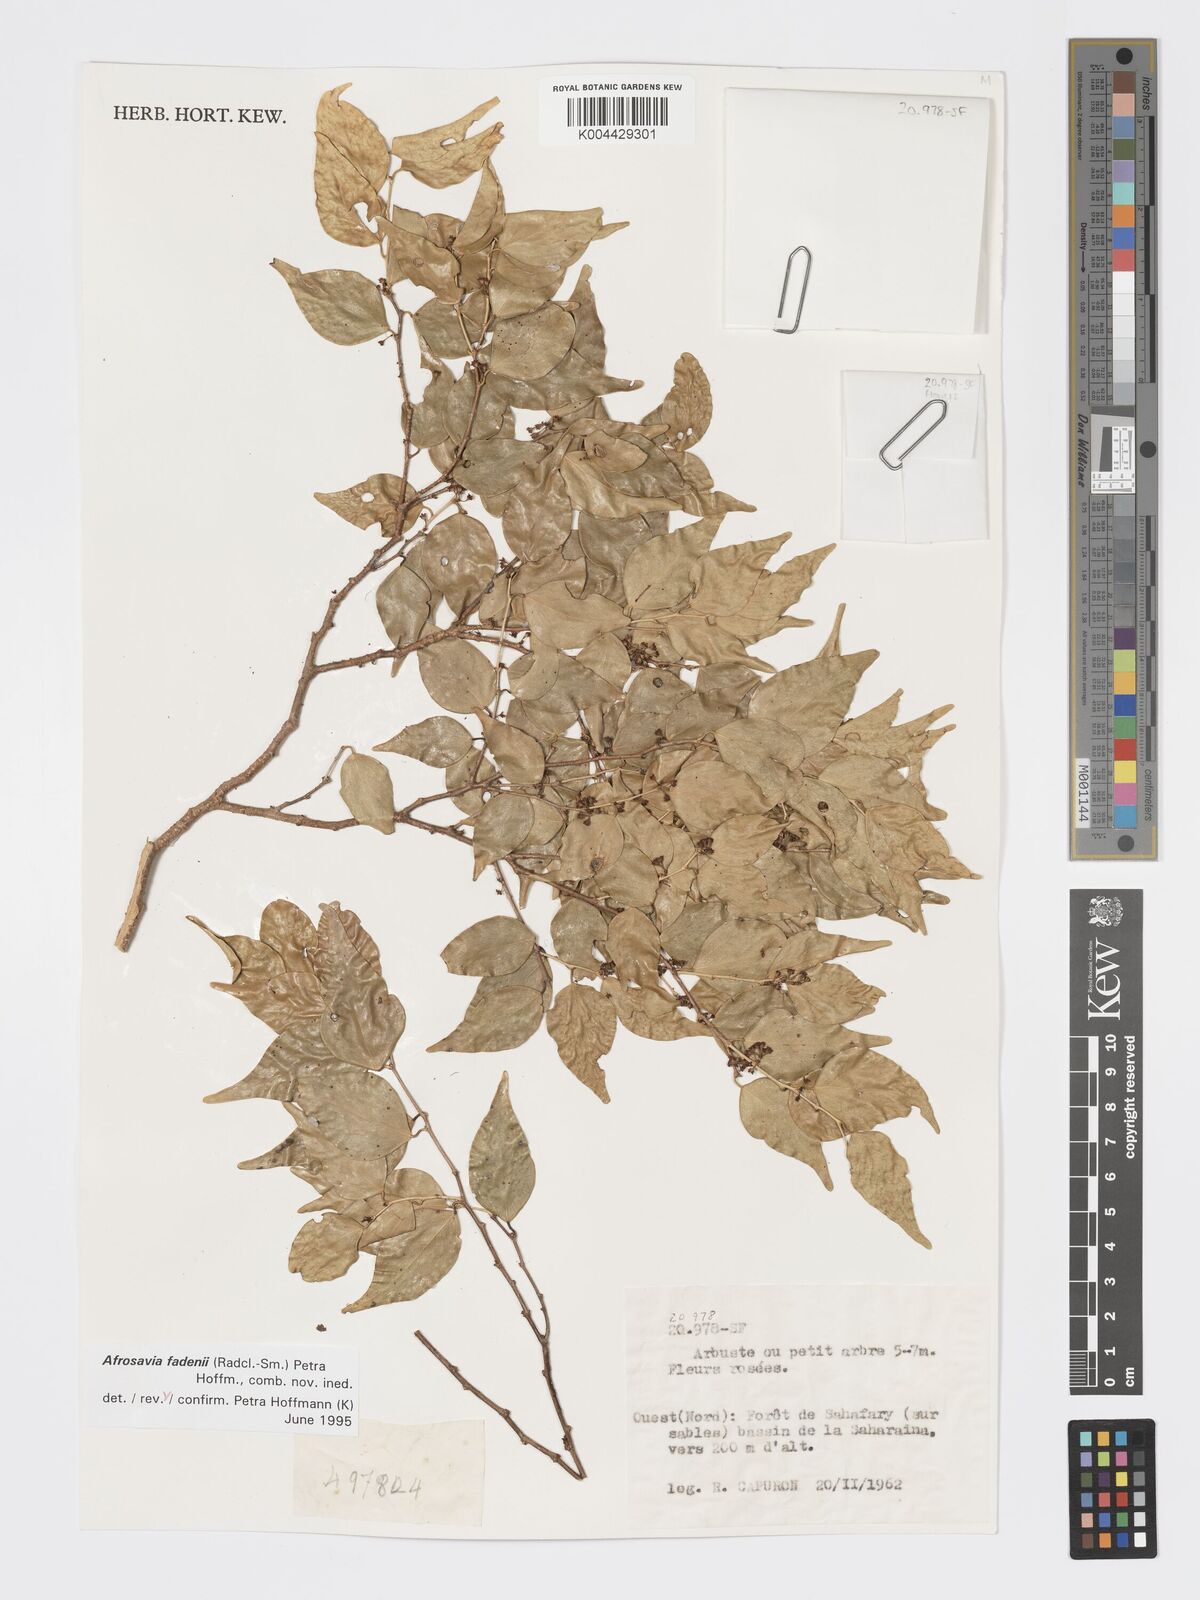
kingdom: Plantae
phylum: Tracheophyta
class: Magnoliopsida
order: Malpighiales
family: Phyllanthaceae
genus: Wielandia
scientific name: Wielandia fadenii
